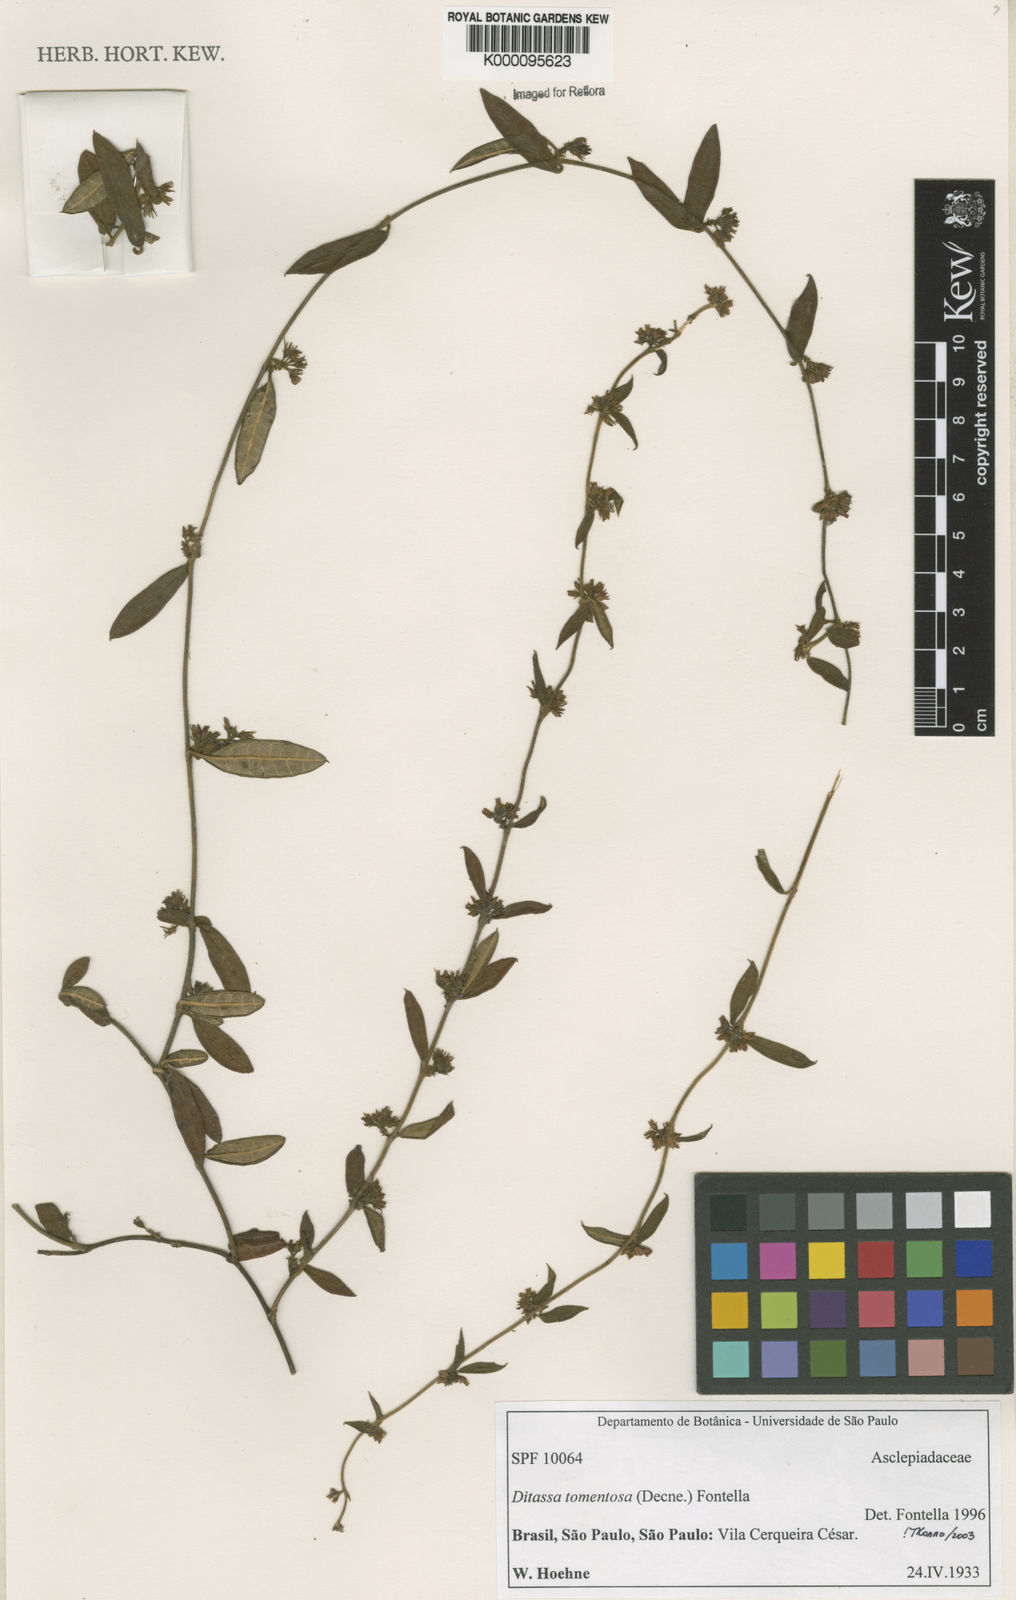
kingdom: Plantae
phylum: Tracheophyta
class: Magnoliopsida
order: Gentianales
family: Apocynaceae
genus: Ditassa
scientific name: Ditassa tomentosa
